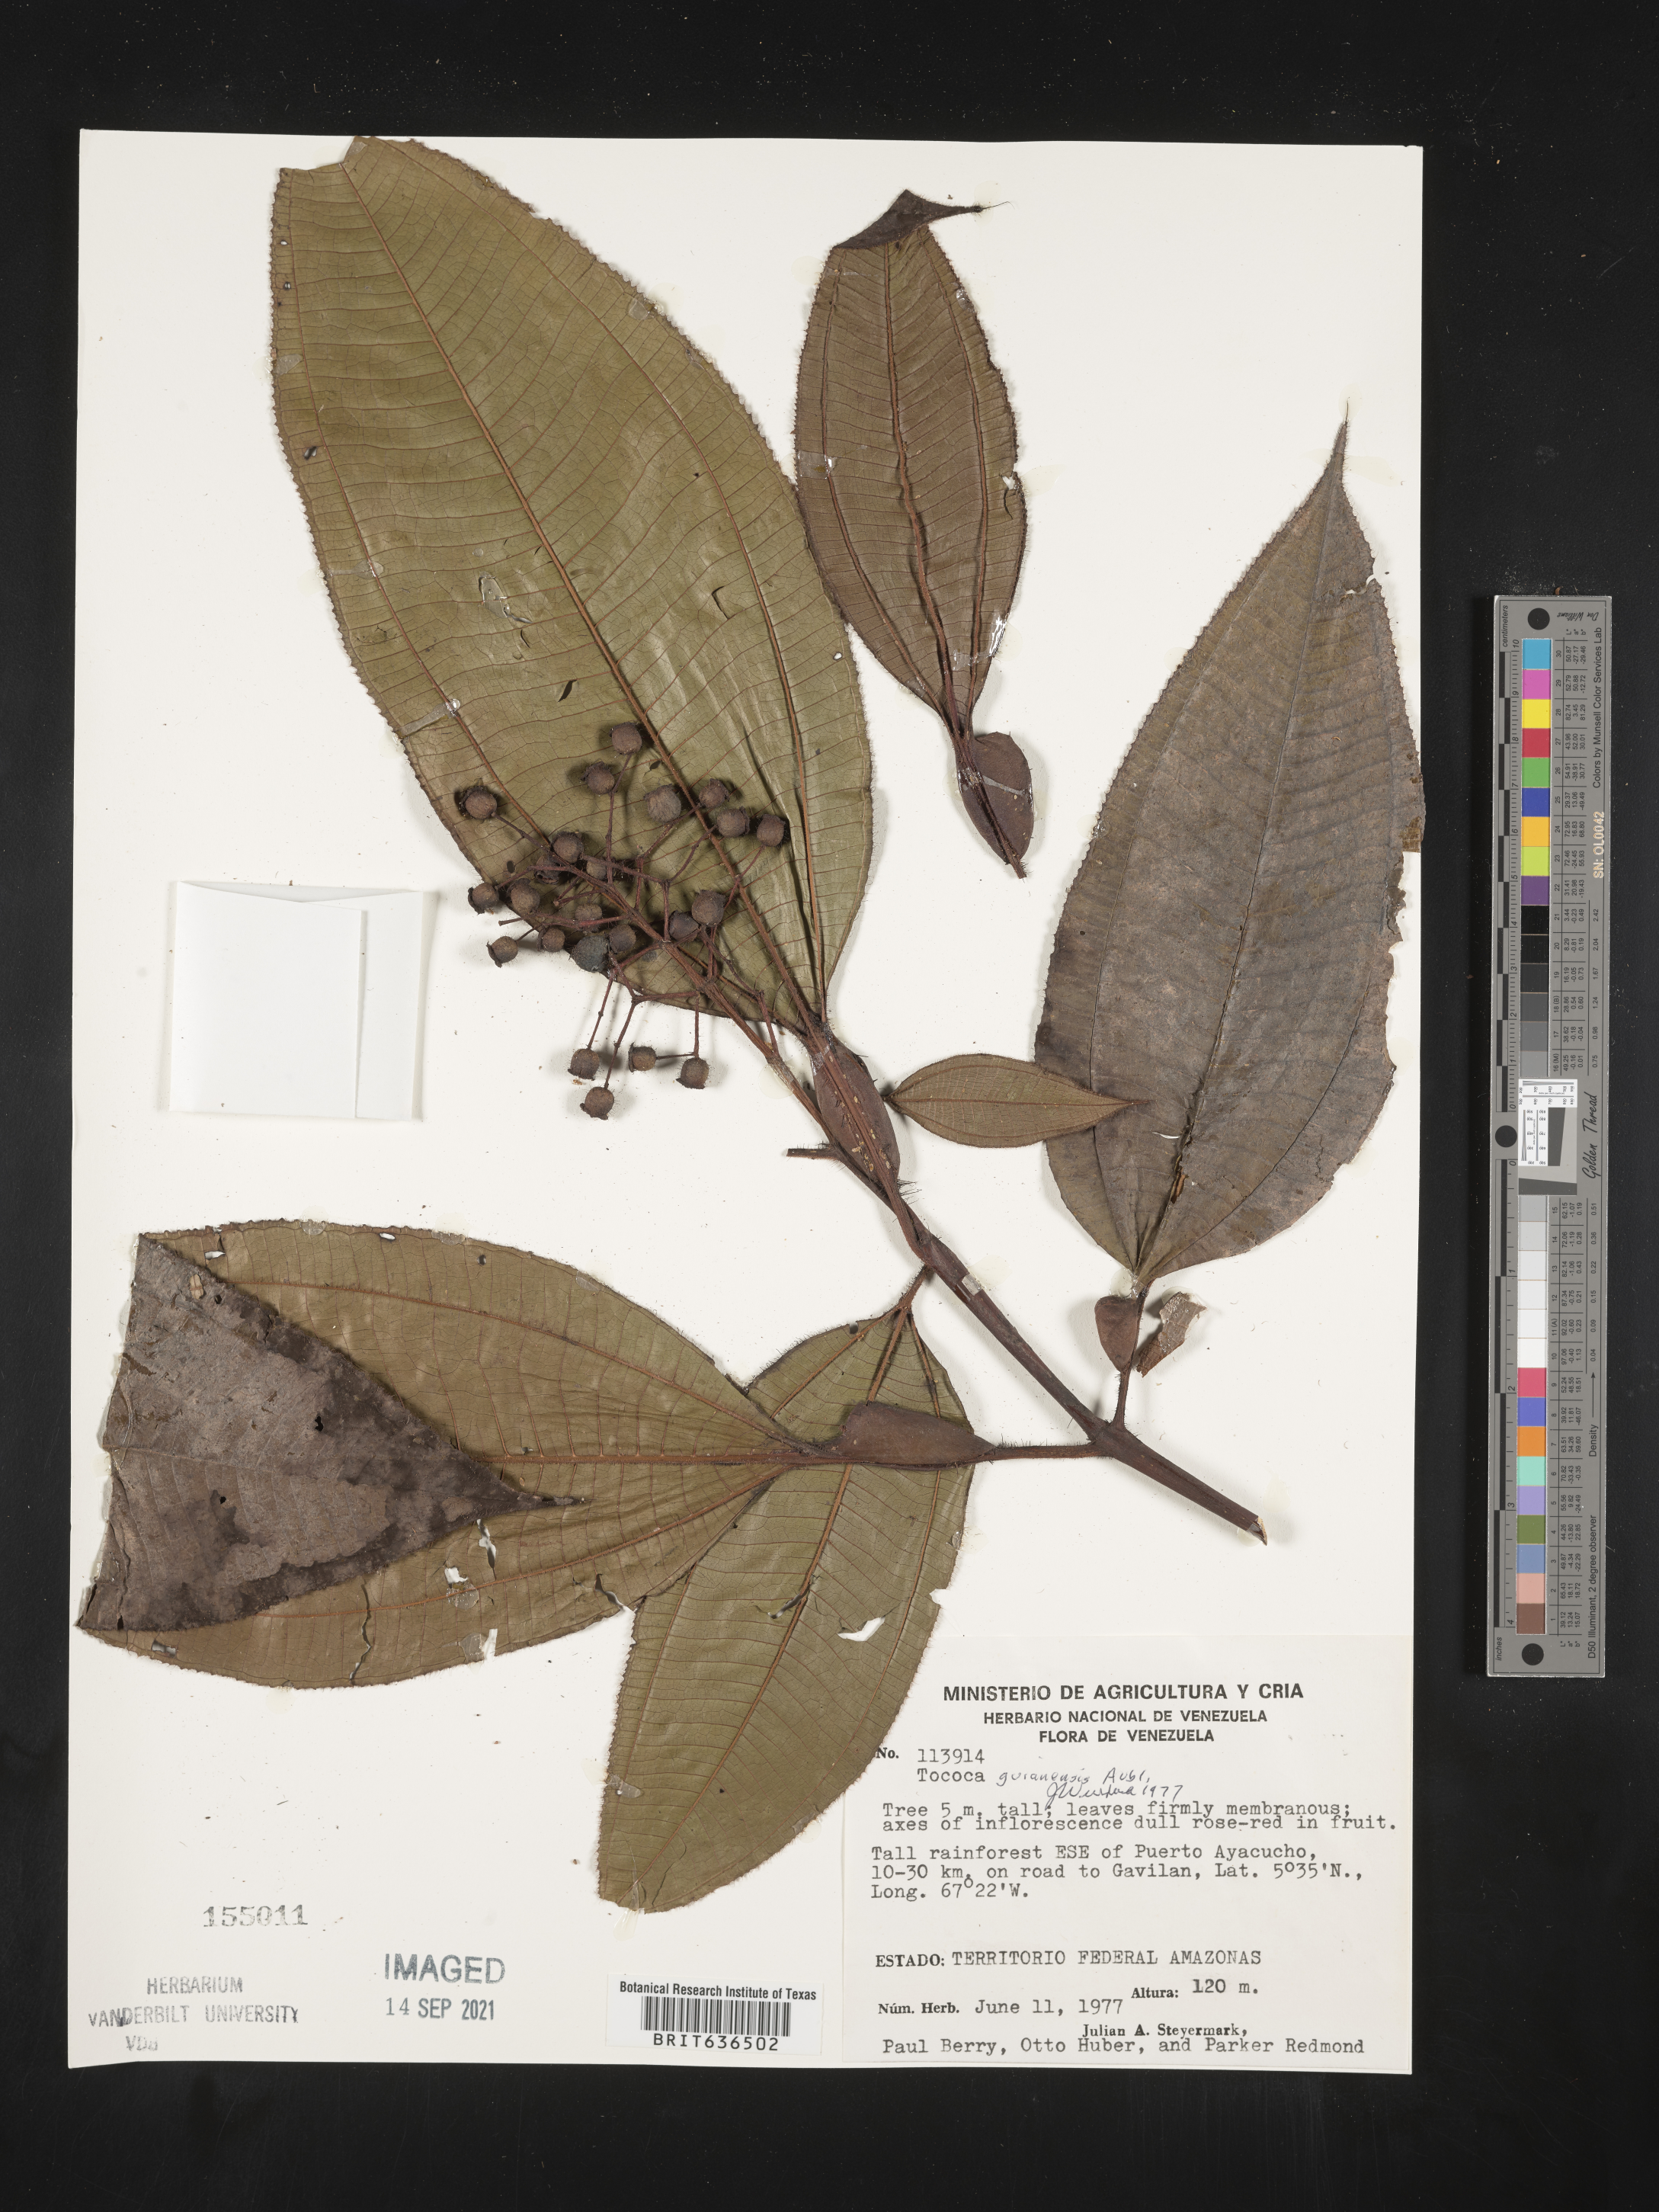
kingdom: Plantae
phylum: Tracheophyta
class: Magnoliopsida
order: Myrtales
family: Melastomataceae
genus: Tibouchina
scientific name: Tibouchina
